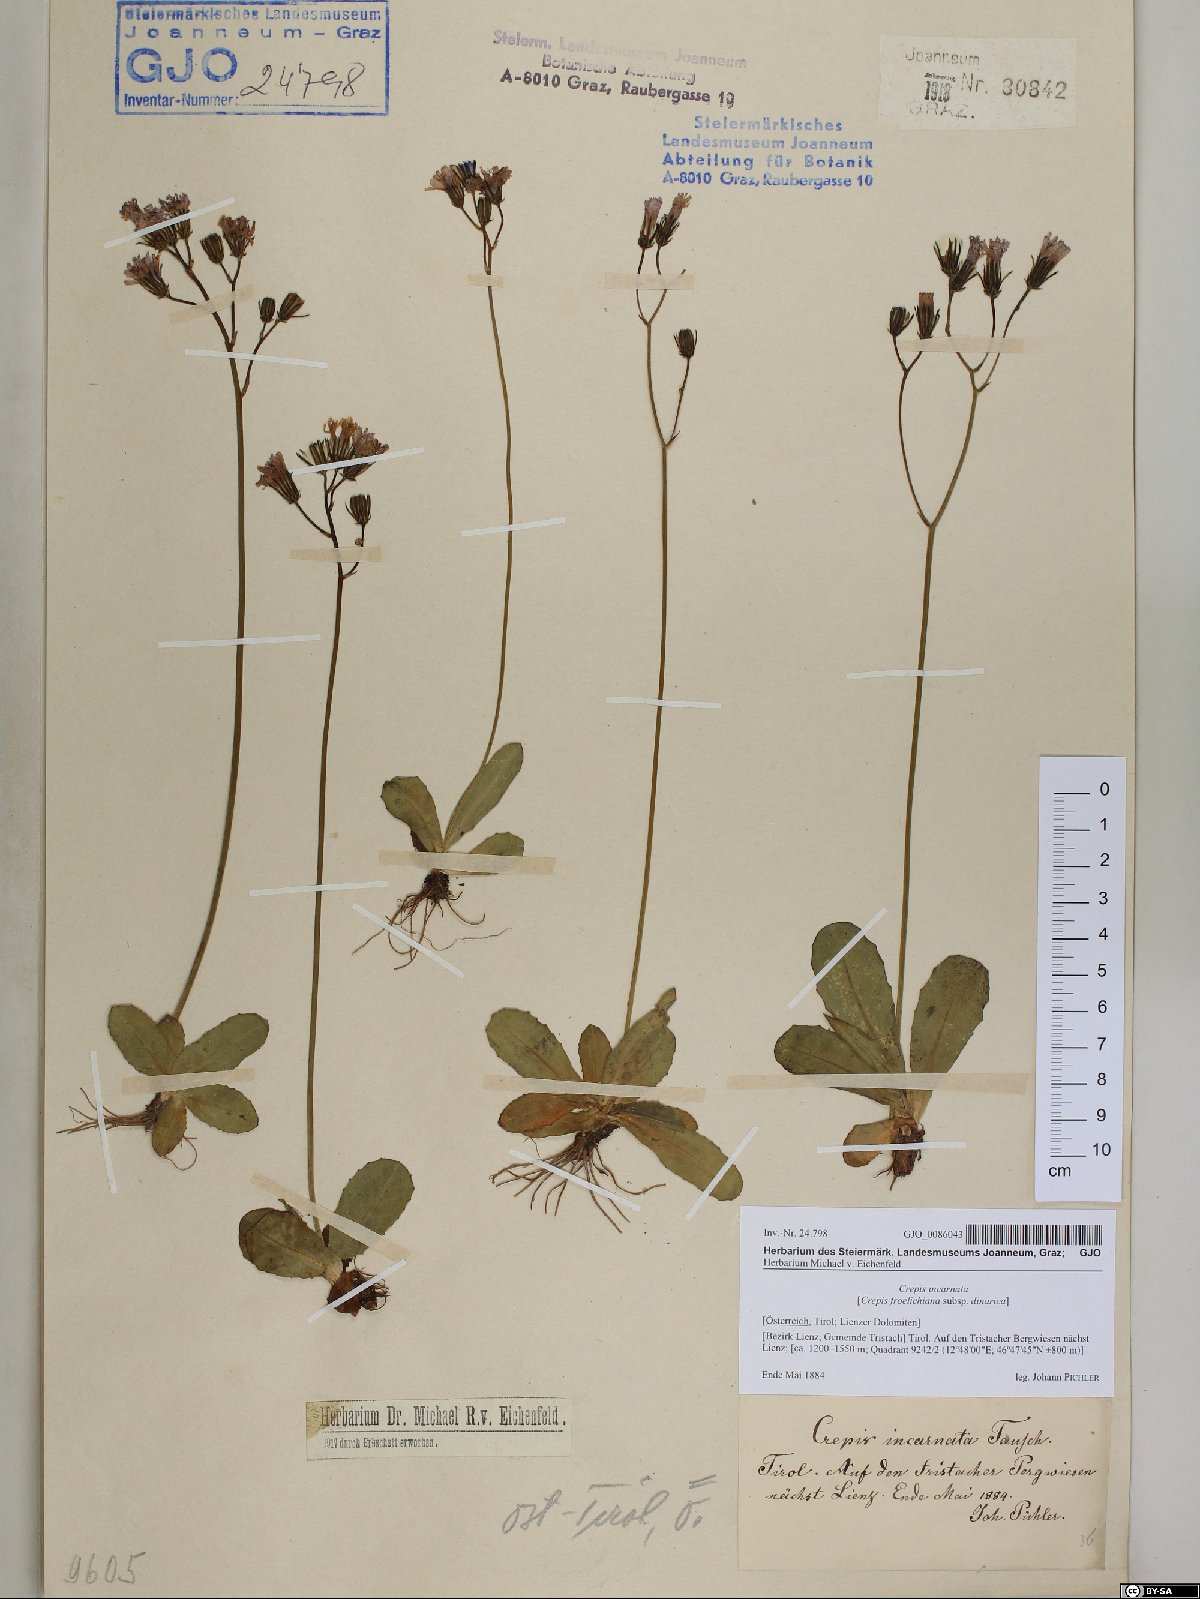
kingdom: Plantae
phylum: Tracheophyta
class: Magnoliopsida
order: Asterales
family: Asteraceae
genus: Crepis
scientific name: Crepis froelichiana
